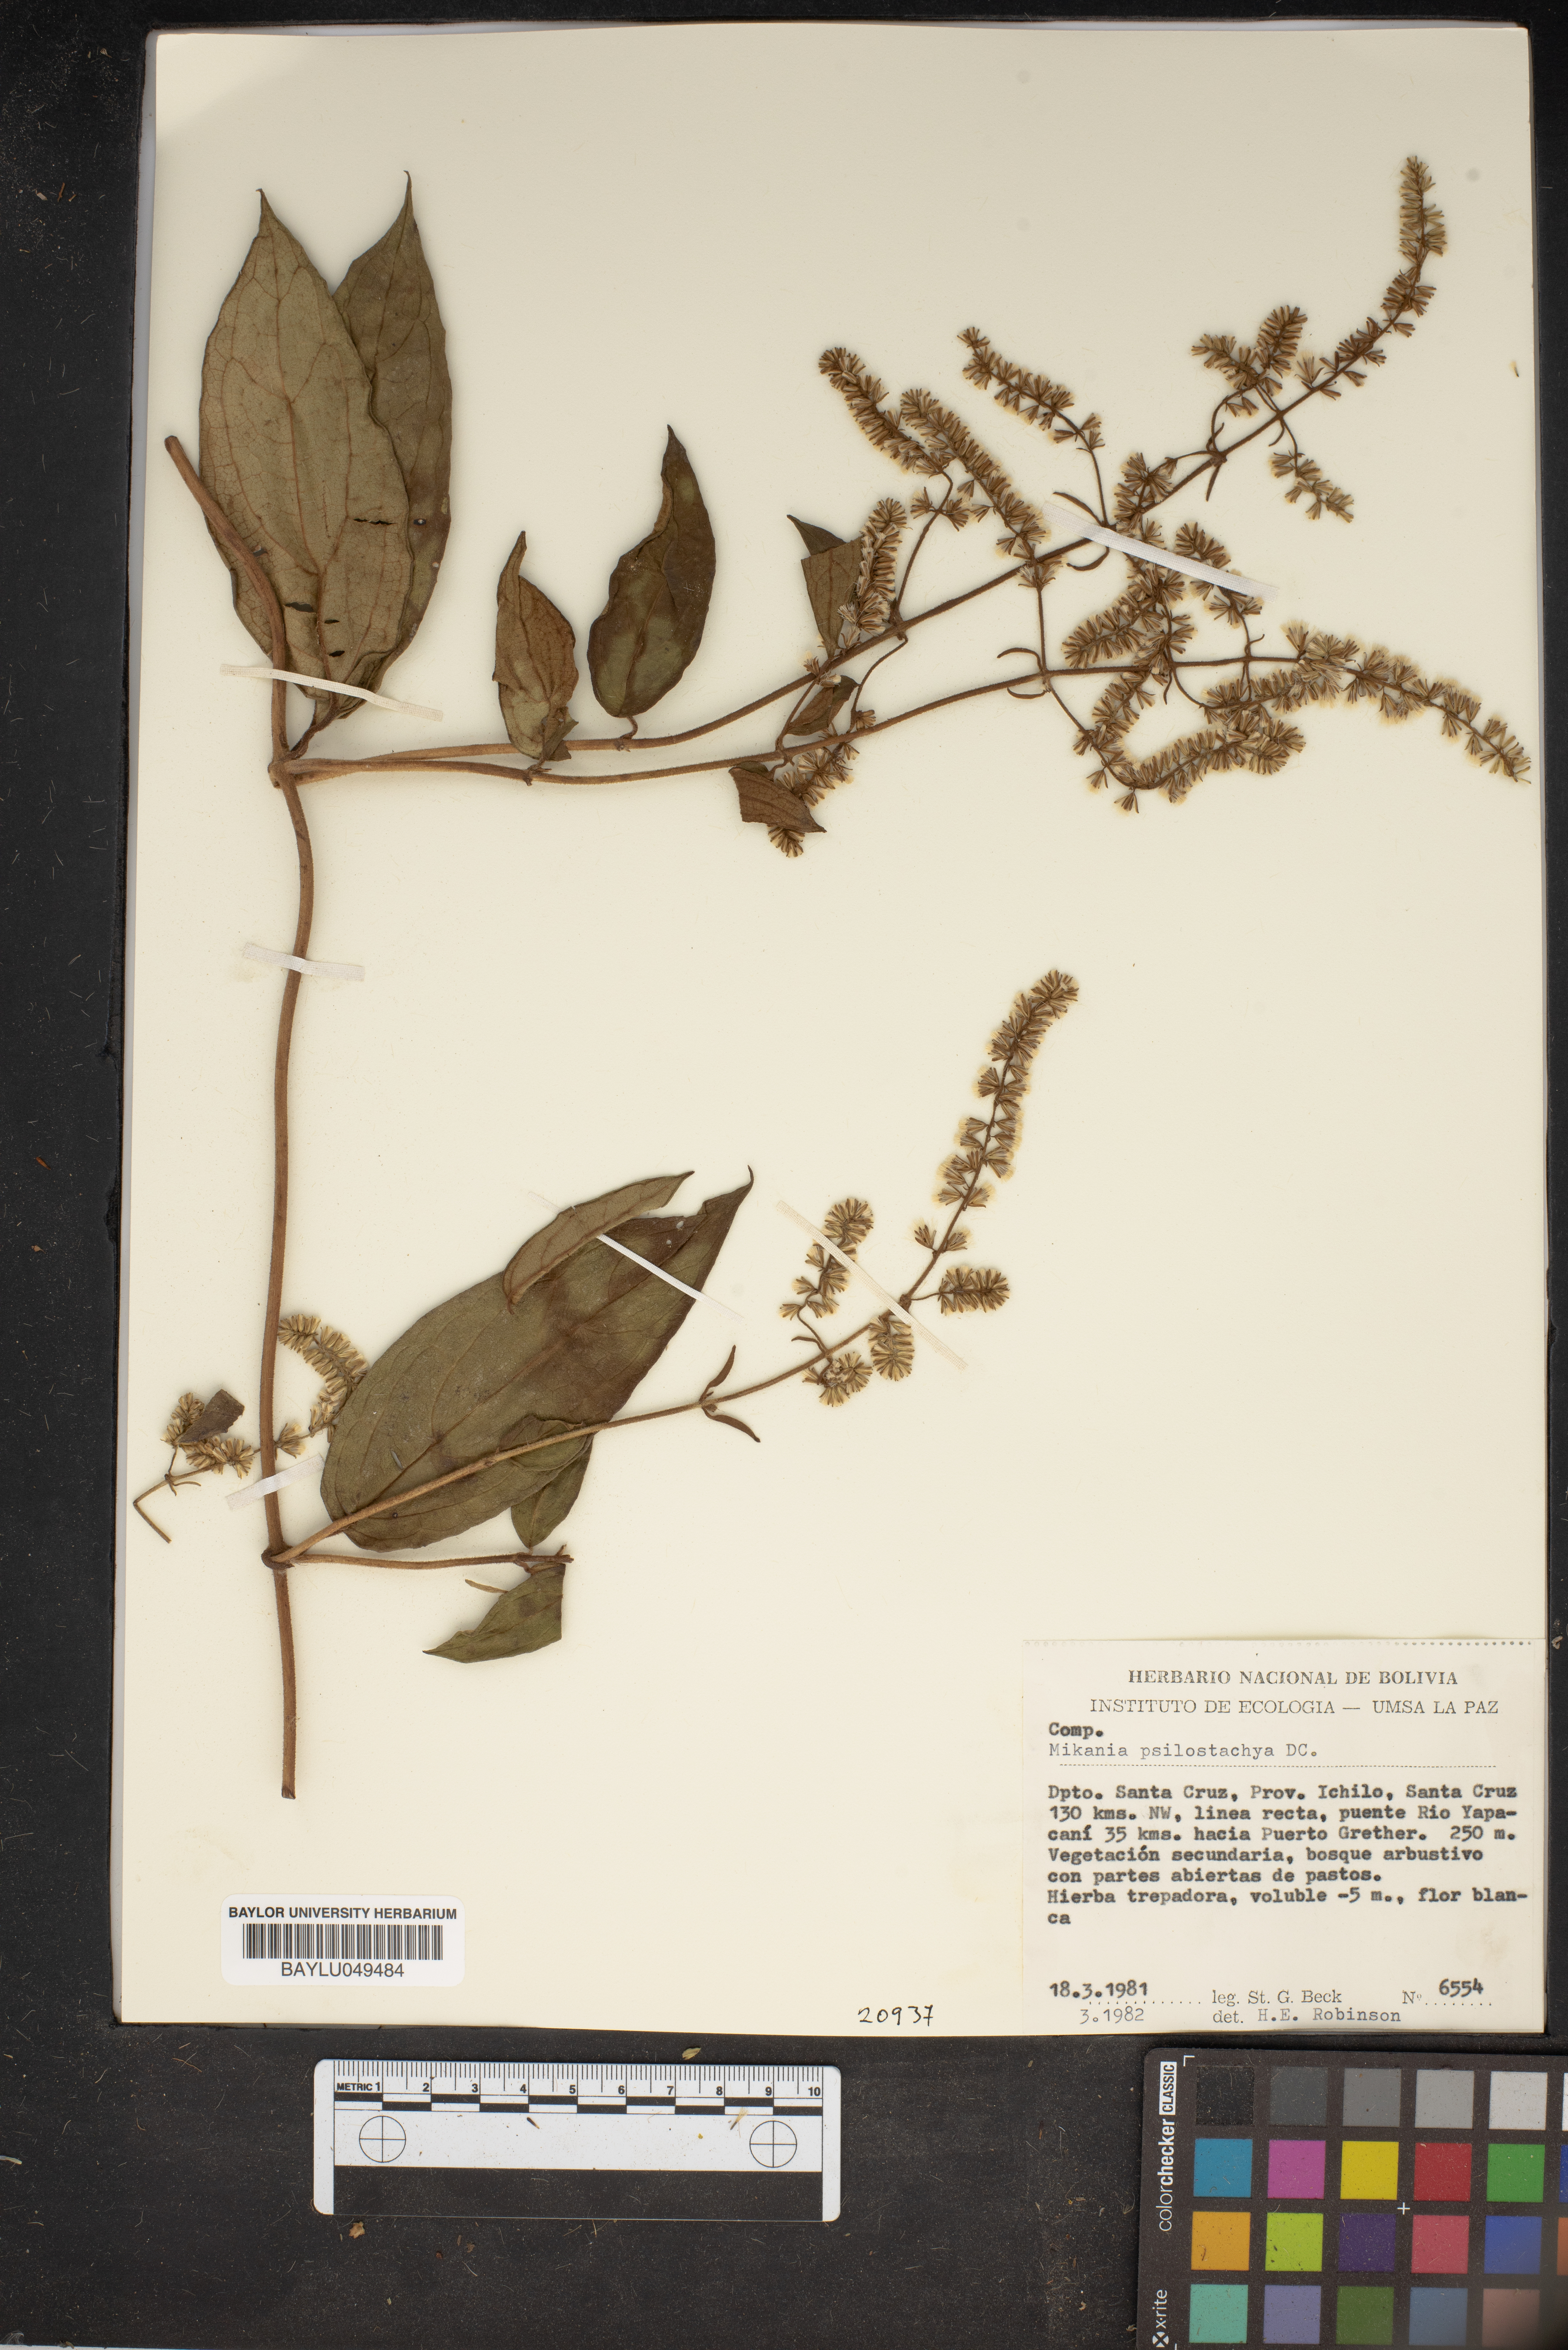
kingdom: Plantae
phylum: Tracheophyta
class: Magnoliopsida
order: Asterales
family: Asteraceae
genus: Mikania
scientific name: Mikania psilostachya
